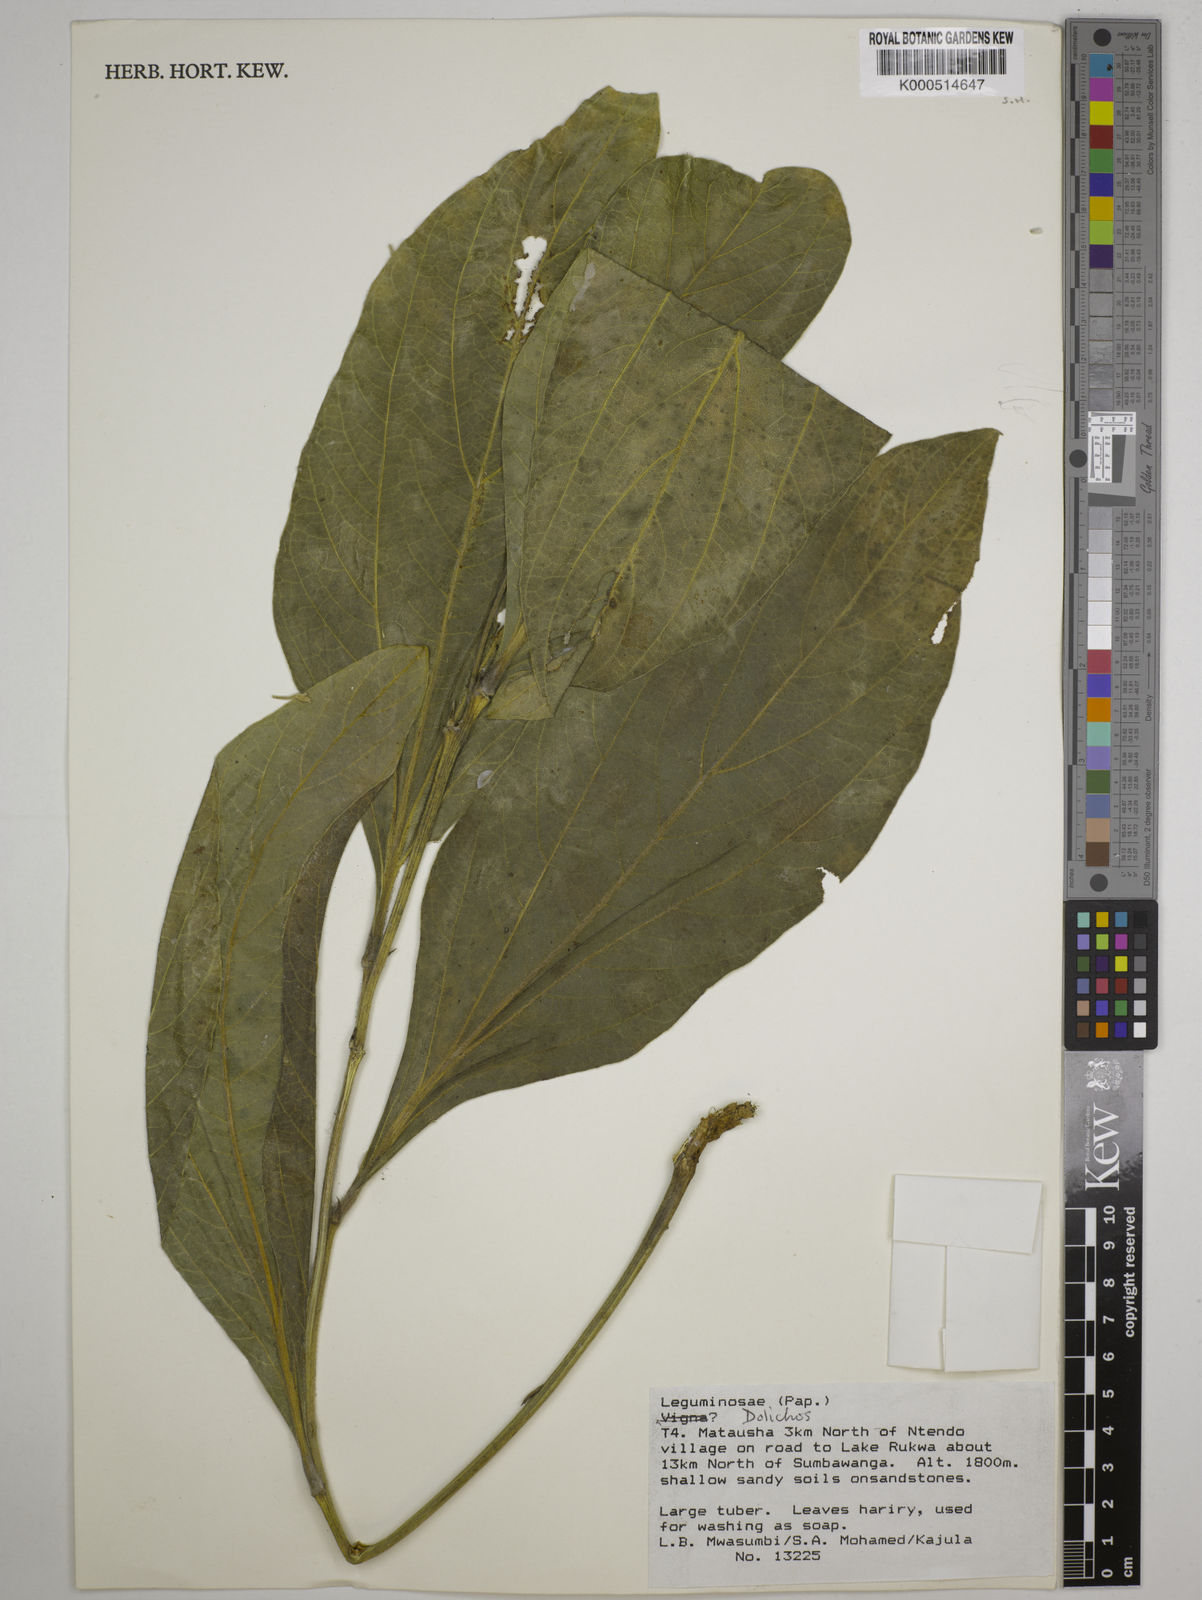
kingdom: Plantae
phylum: Tracheophyta
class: Magnoliopsida
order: Fabales
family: Fabaceae
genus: Dolichos
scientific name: Dolichos ichthyophone
